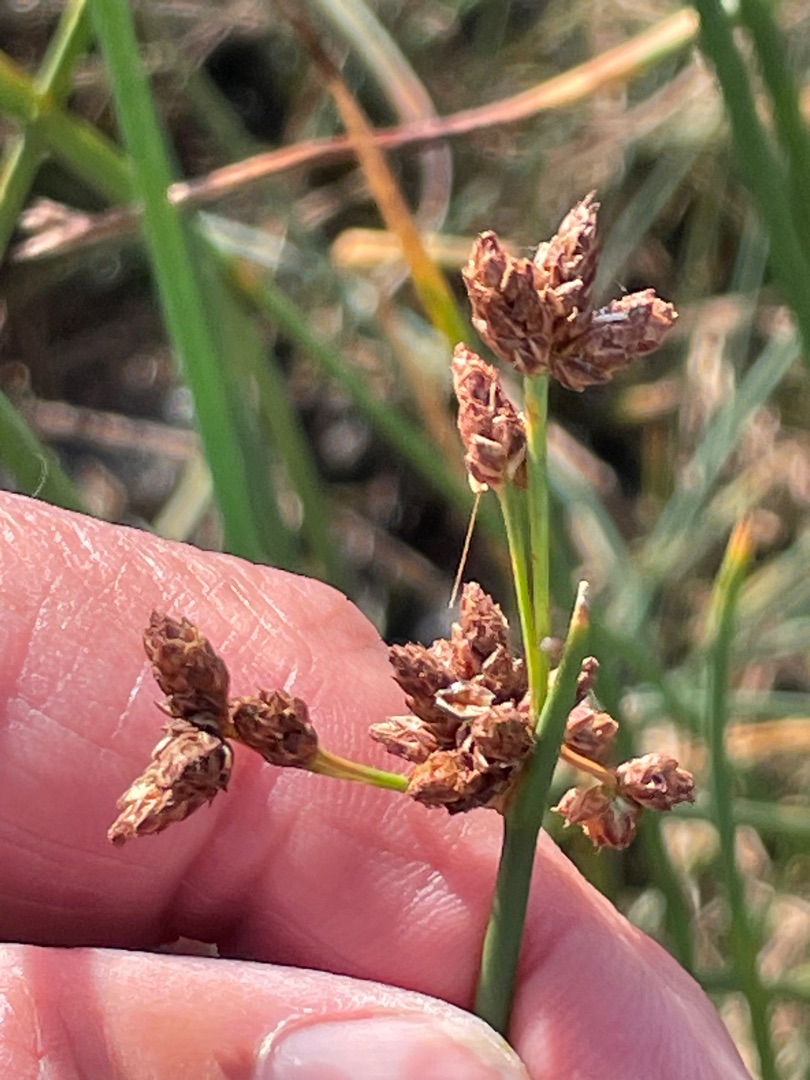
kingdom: Plantae
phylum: Tracheophyta
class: Liliopsida
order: Poales
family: Cyperaceae
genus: Schoenoplectus
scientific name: Schoenoplectus tabernaemontani
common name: Blågrøn kogleaks
